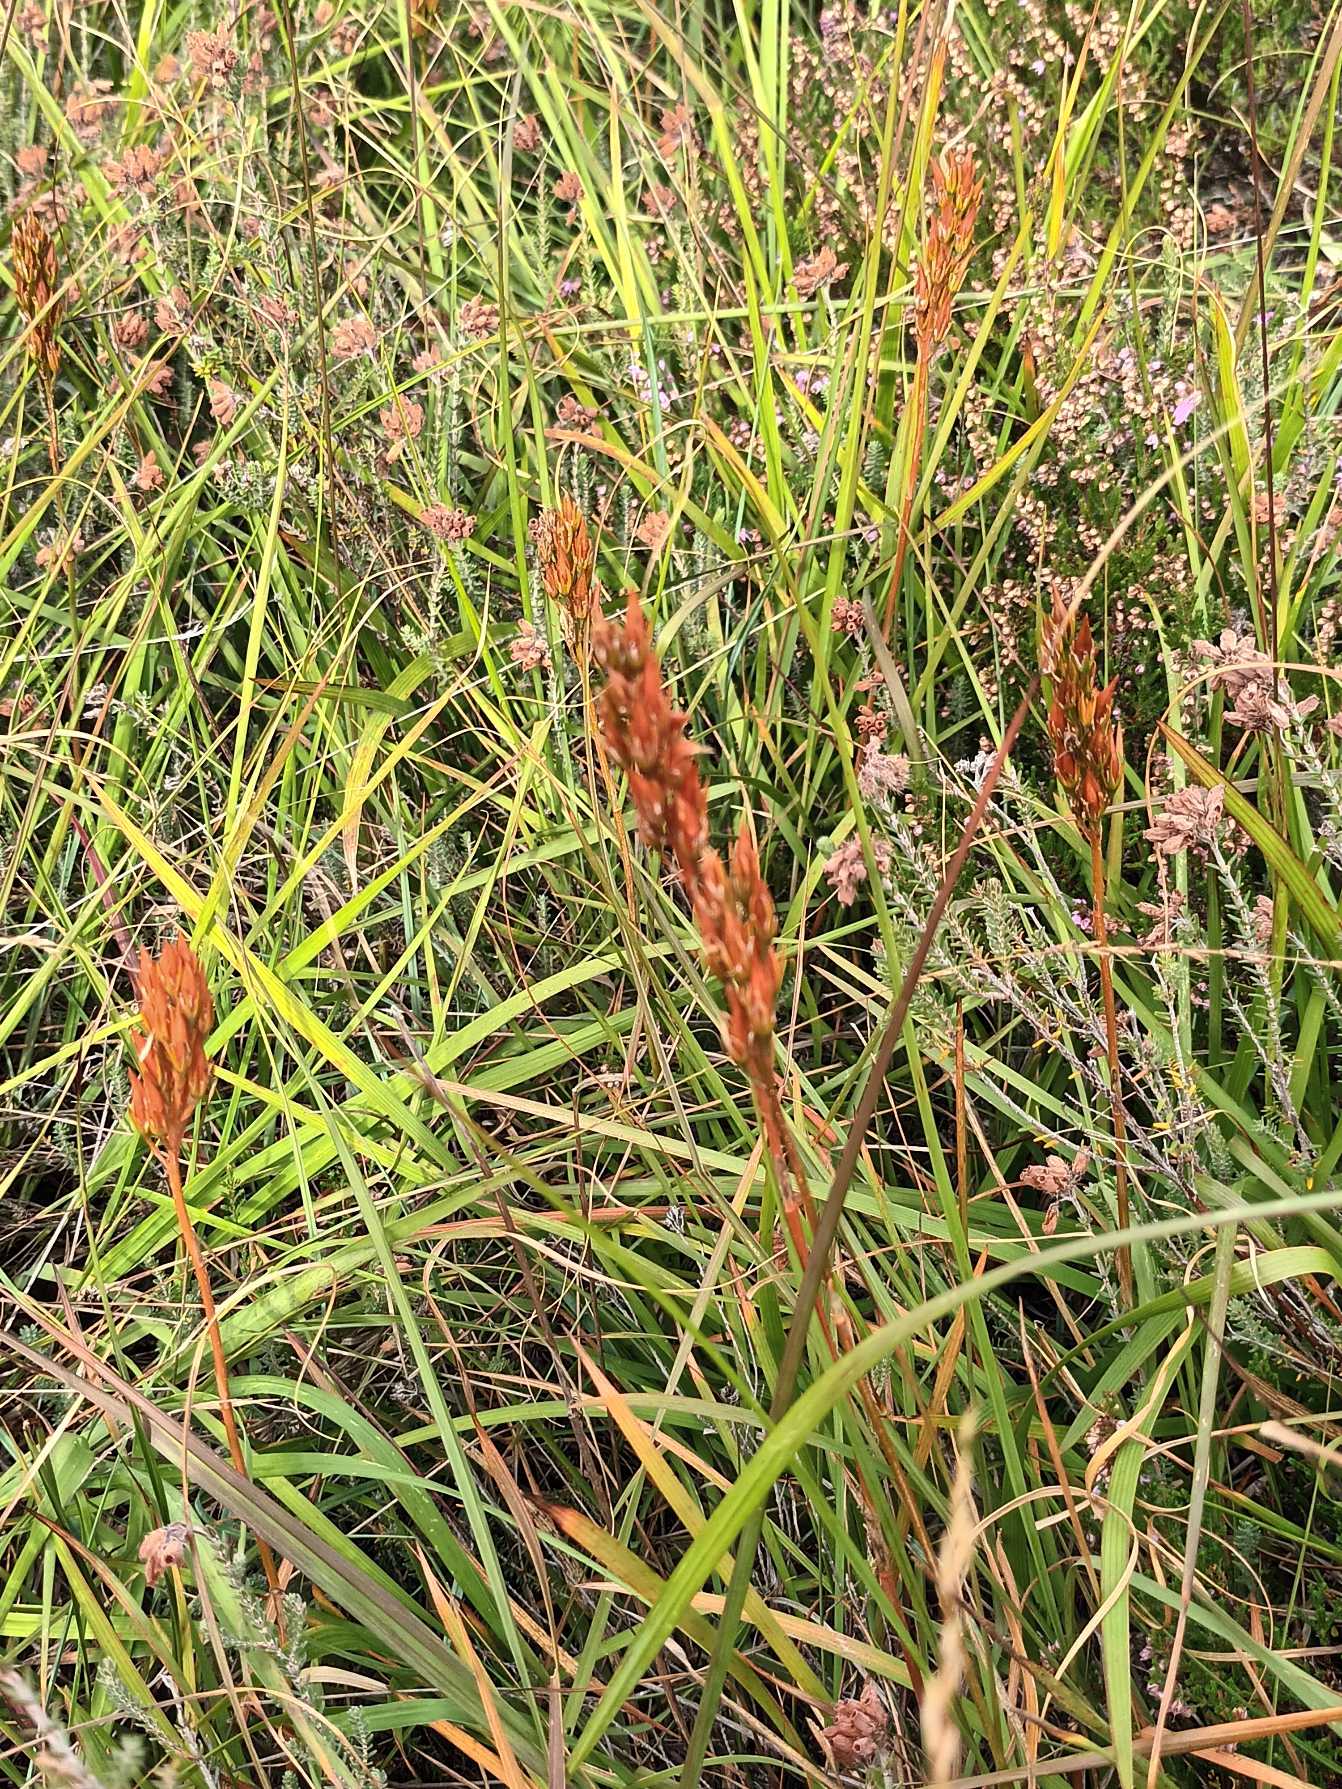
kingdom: Plantae
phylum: Tracheophyta
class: Liliopsida
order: Dioscoreales
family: Nartheciaceae
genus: Narthecium
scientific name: Narthecium ossifragum
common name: Benbræk
